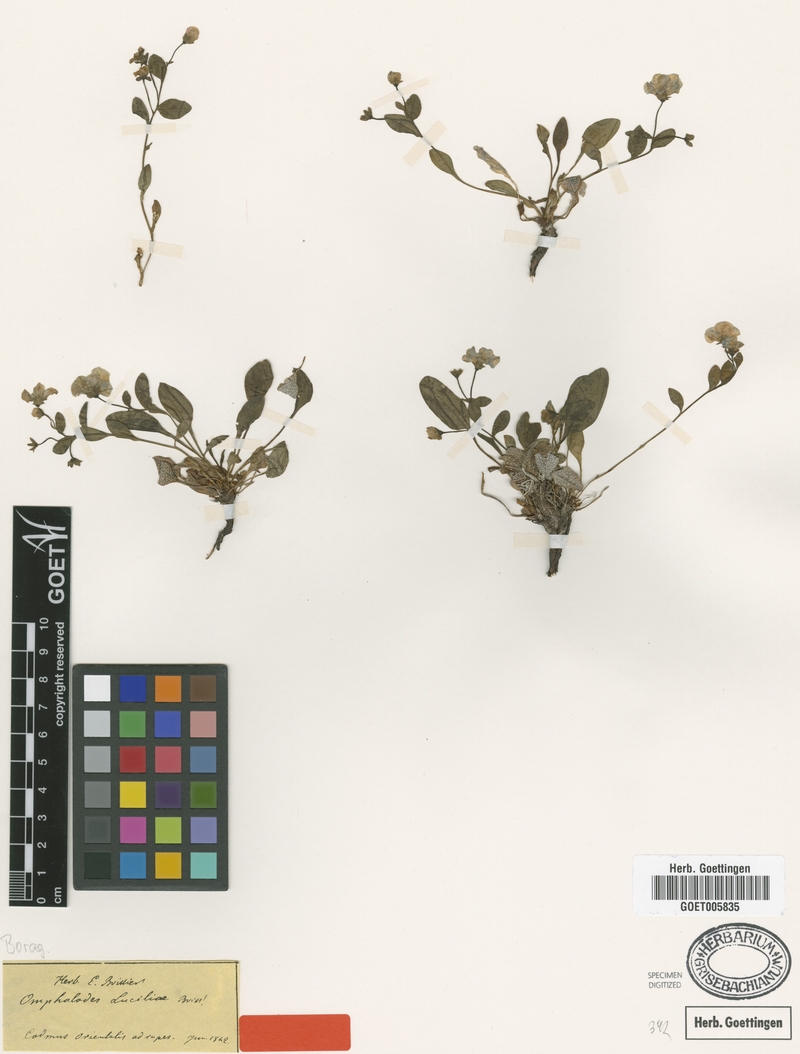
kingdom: Plantae
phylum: Tracheophyta
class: Magnoliopsida
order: Boraginales
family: Boraginaceae
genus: Omphalodes
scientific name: Omphalodes luciliae
